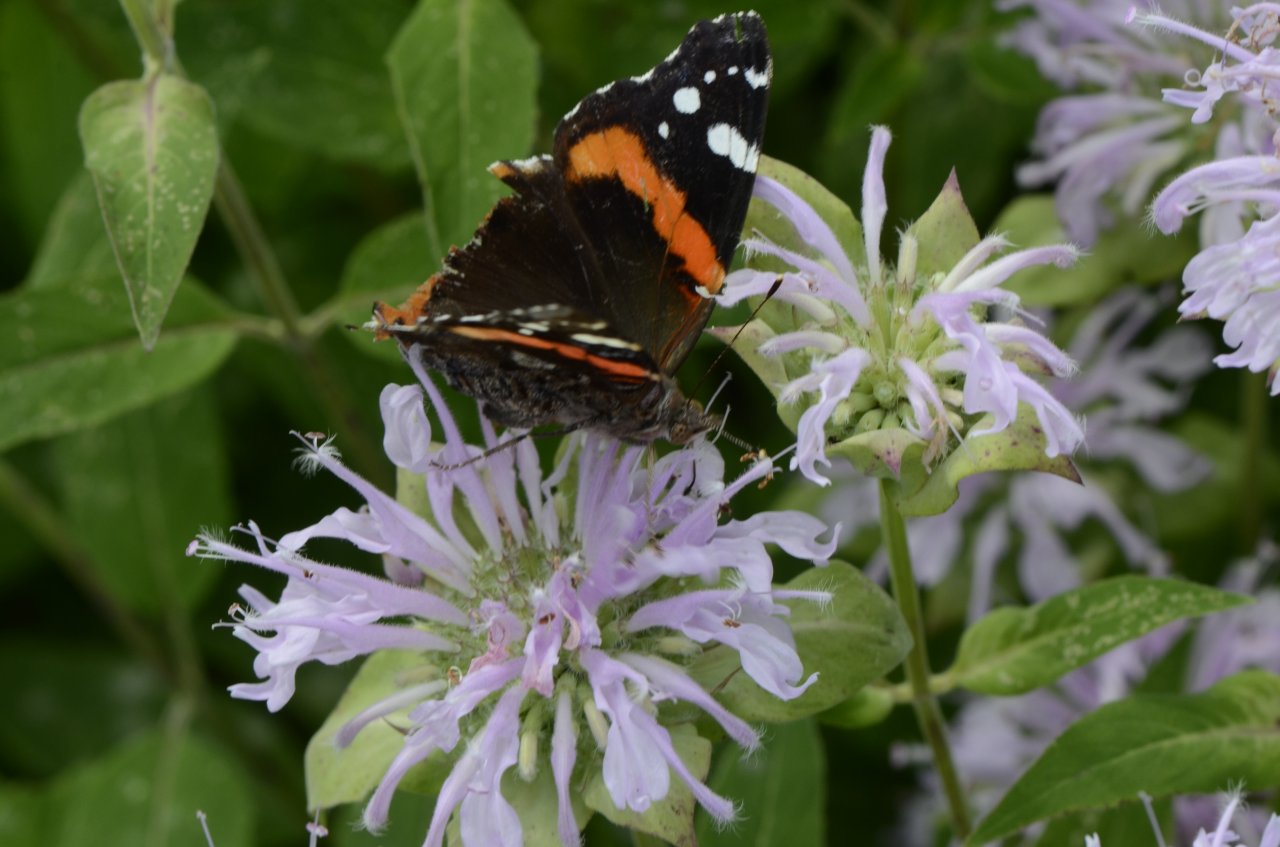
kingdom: Animalia
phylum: Arthropoda
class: Insecta
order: Lepidoptera
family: Nymphalidae
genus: Vanessa
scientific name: Vanessa atalanta
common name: Red Admiral
